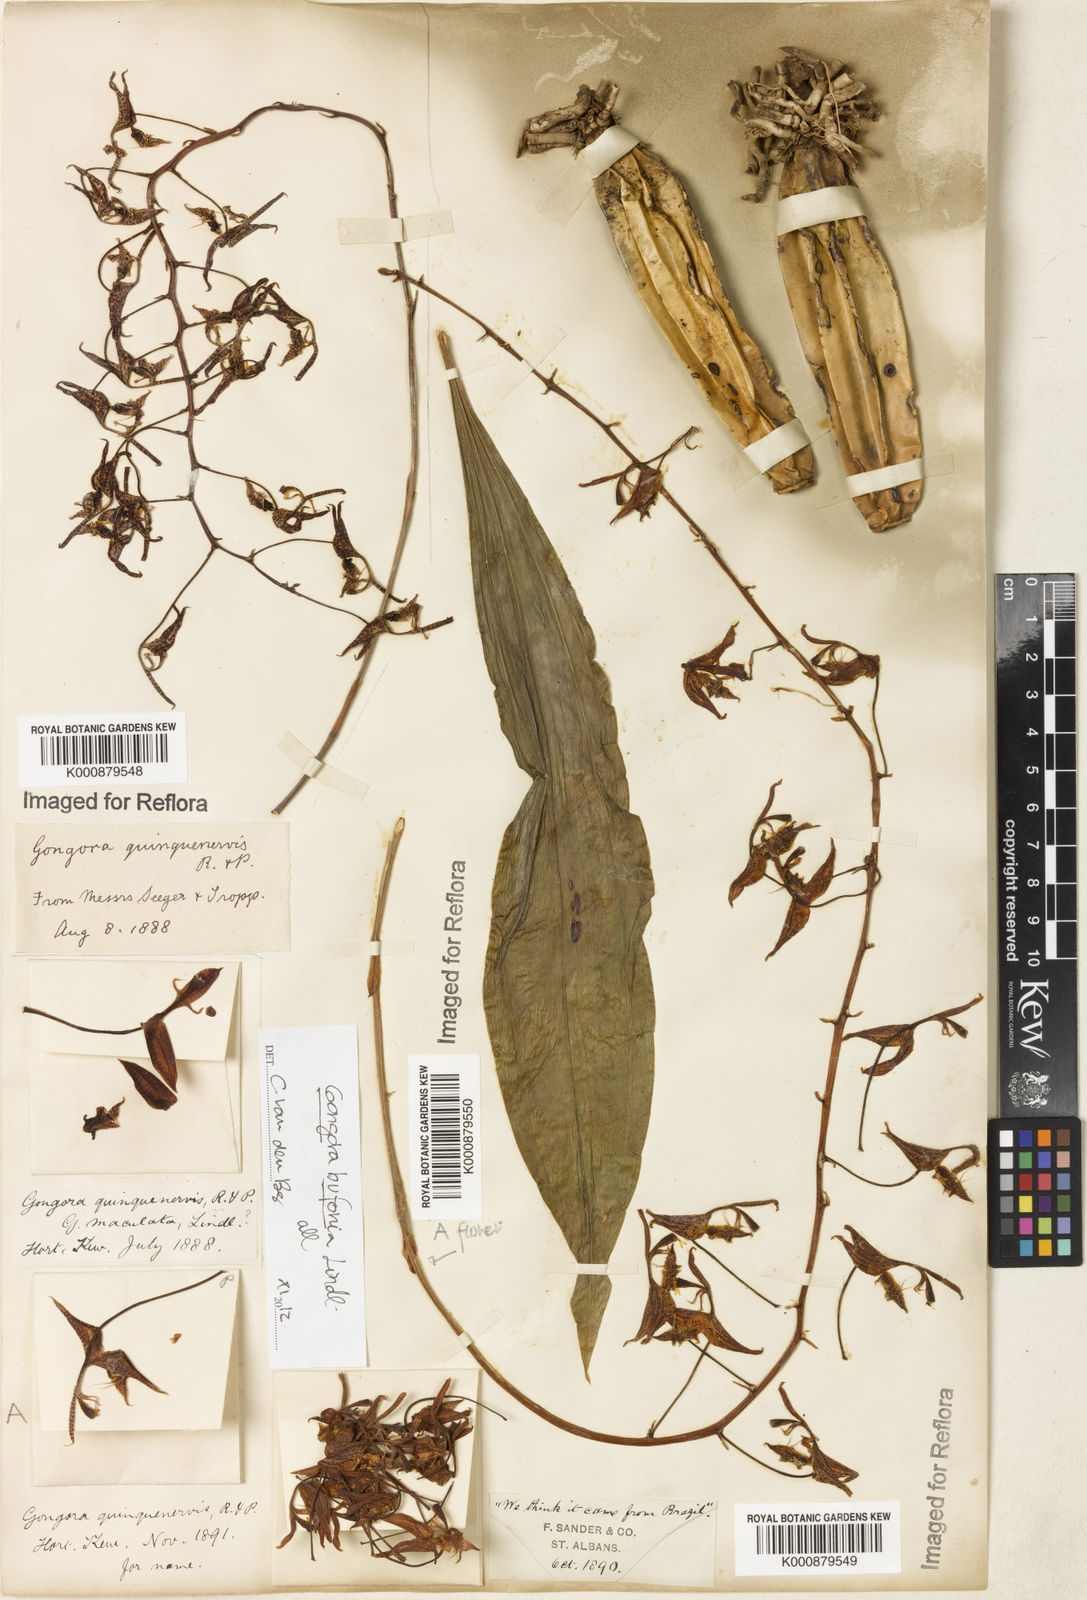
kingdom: Plantae
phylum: Tracheophyta
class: Liliopsida
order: Asparagales
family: Orchidaceae
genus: Gongora
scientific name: Gongora bufonia
